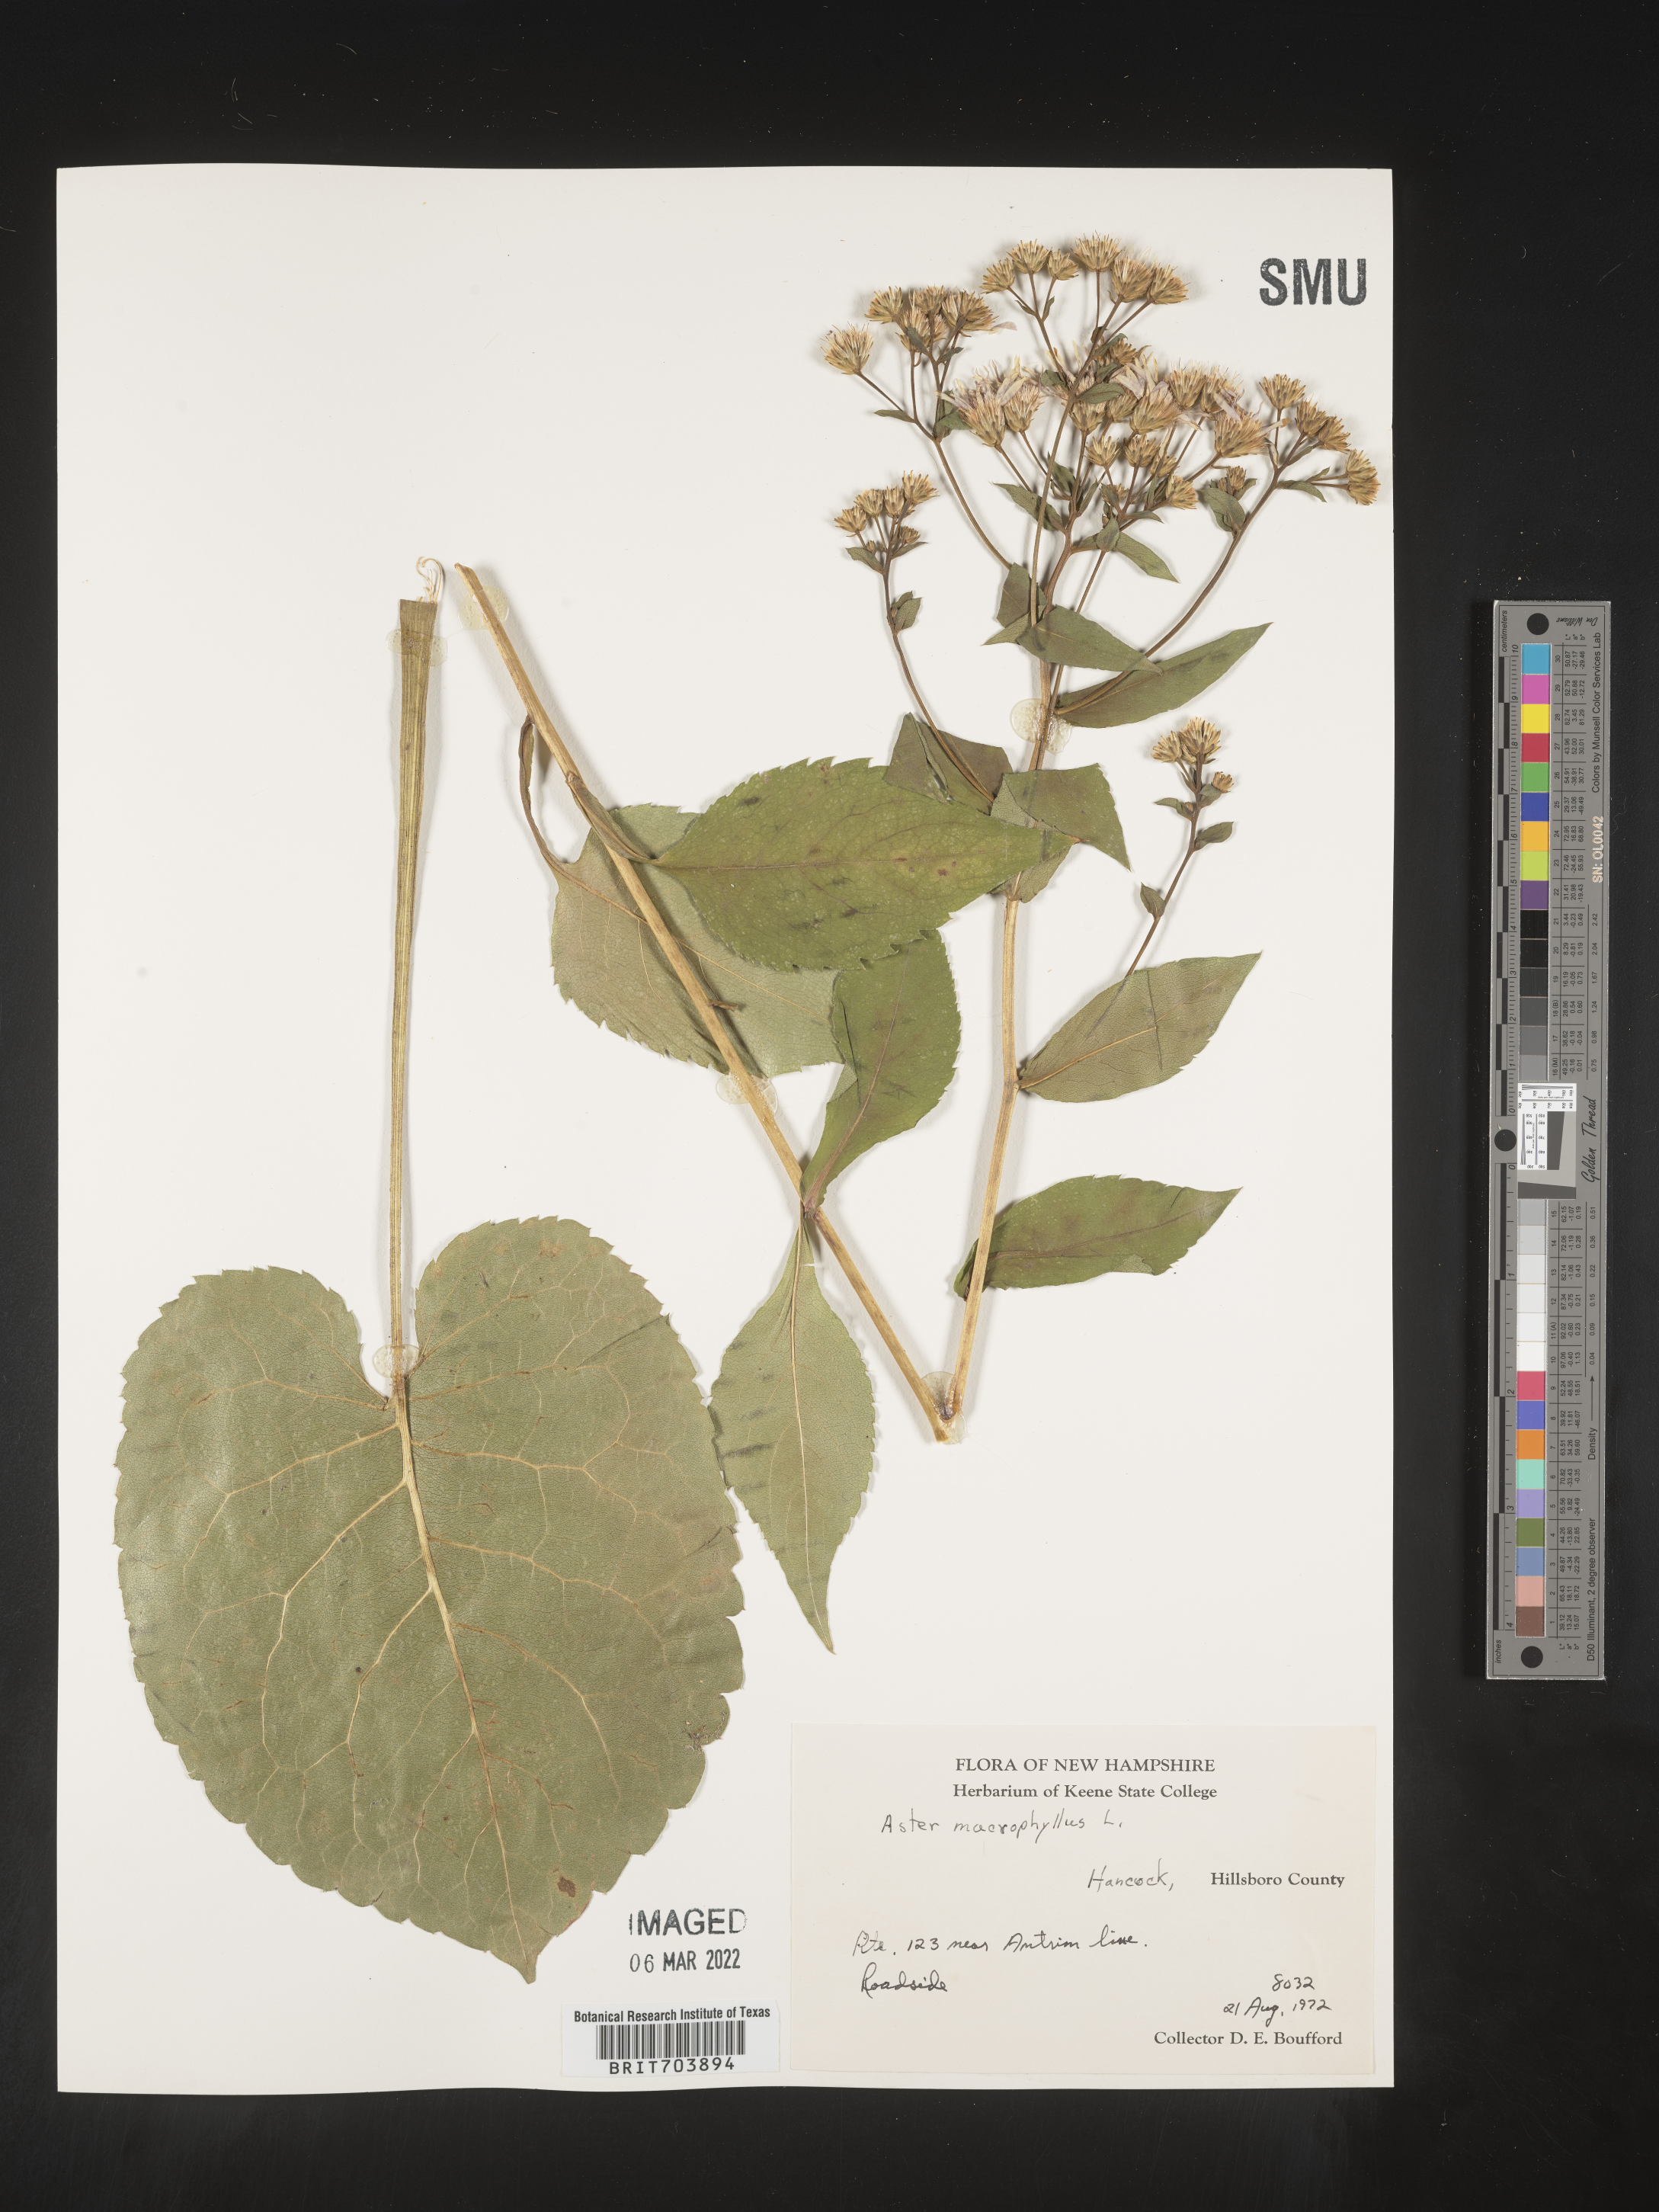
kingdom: Plantae
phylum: Tracheophyta
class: Magnoliopsida
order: Asterales
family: Asteraceae
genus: Eurybia
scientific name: Eurybia macrophylla
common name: Big-leaved aster
